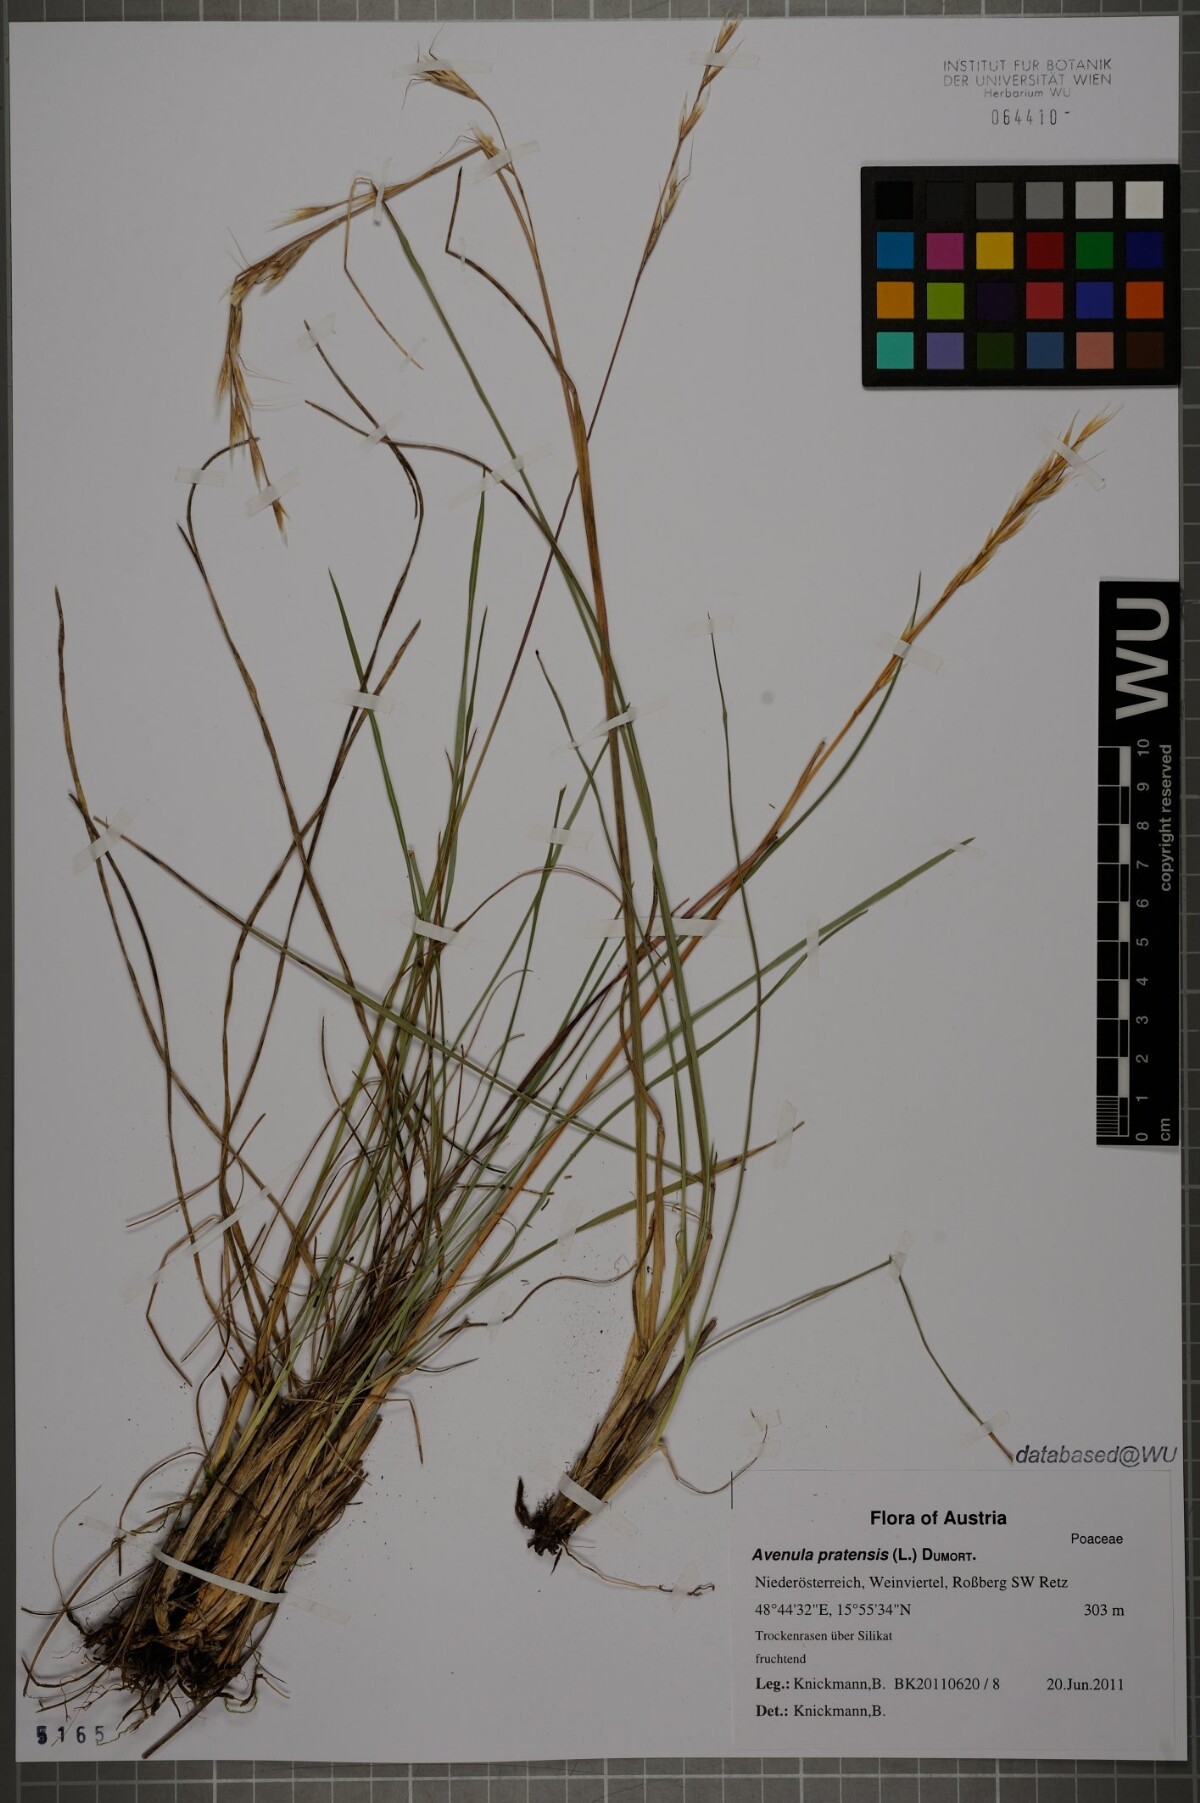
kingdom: Plantae
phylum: Tracheophyta
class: Liliopsida
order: Poales
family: Poaceae
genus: Helictochloa
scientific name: Helictochloa pratensis
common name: Meadow oat grass
